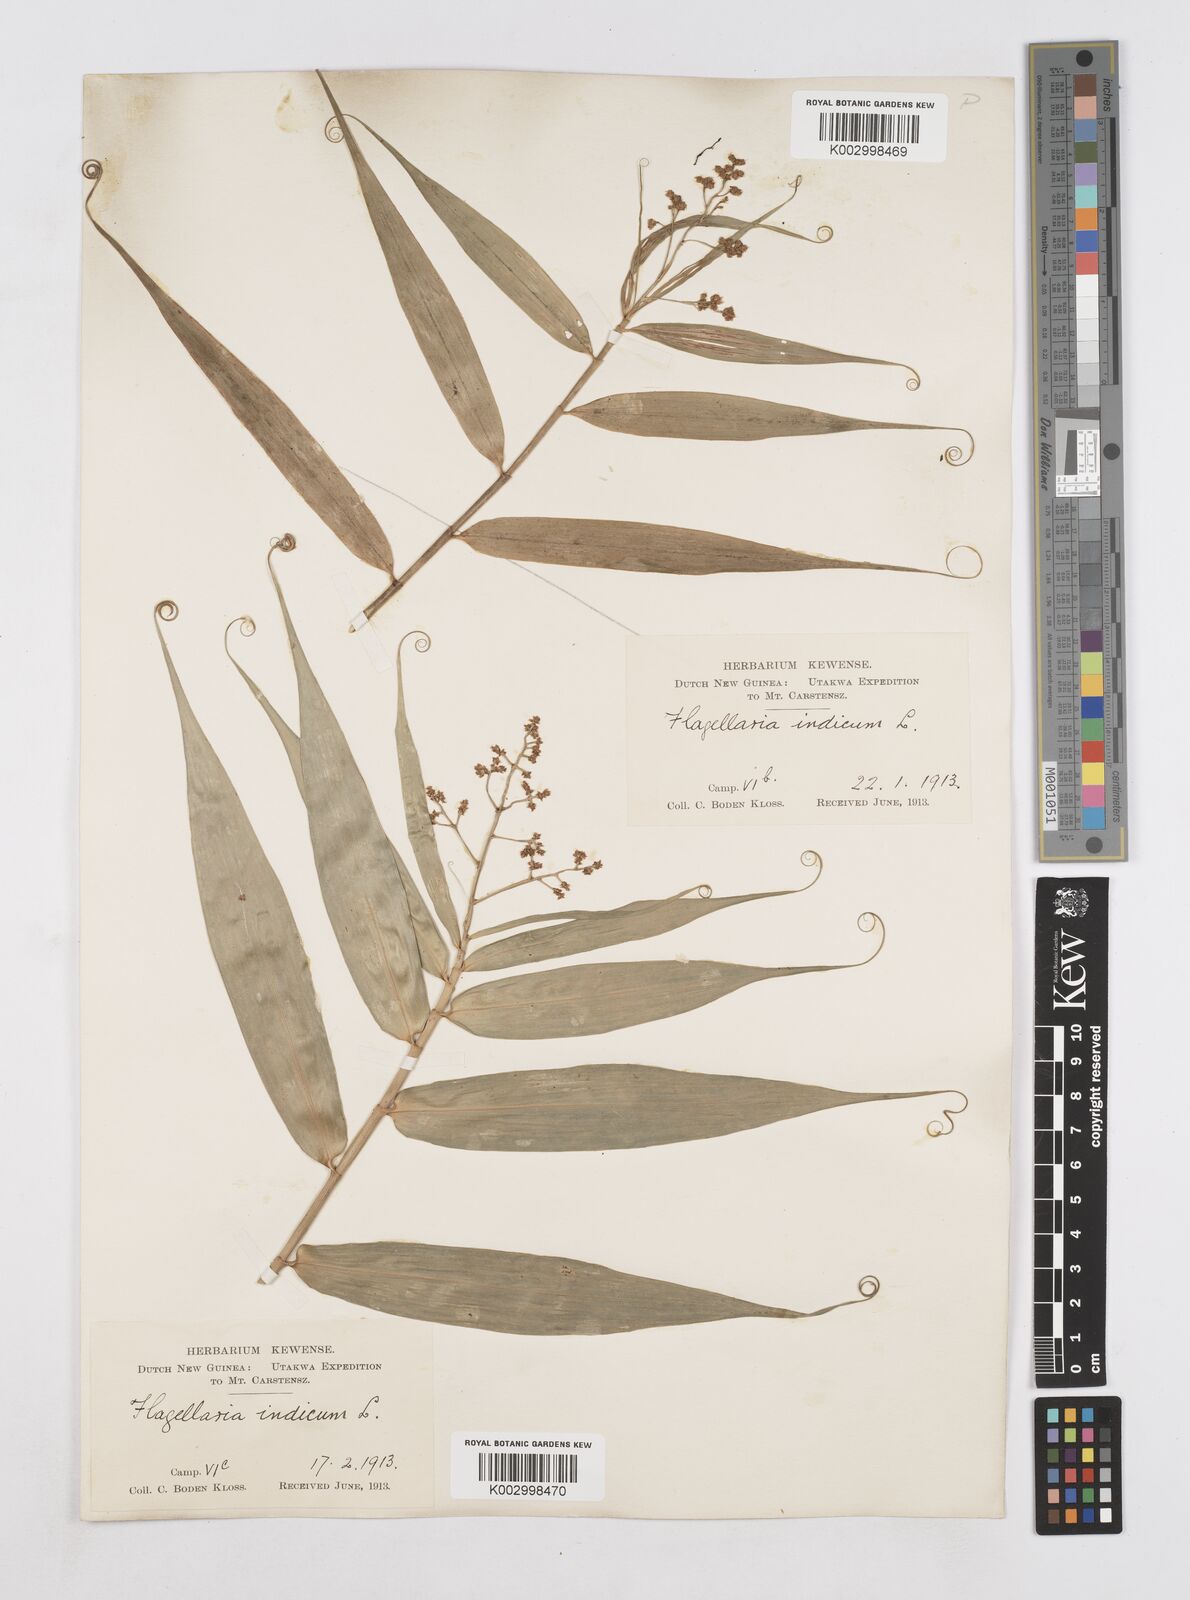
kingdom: Plantae
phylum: Tracheophyta
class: Liliopsida
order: Poales
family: Flagellariaceae
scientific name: Flagellariaceae
